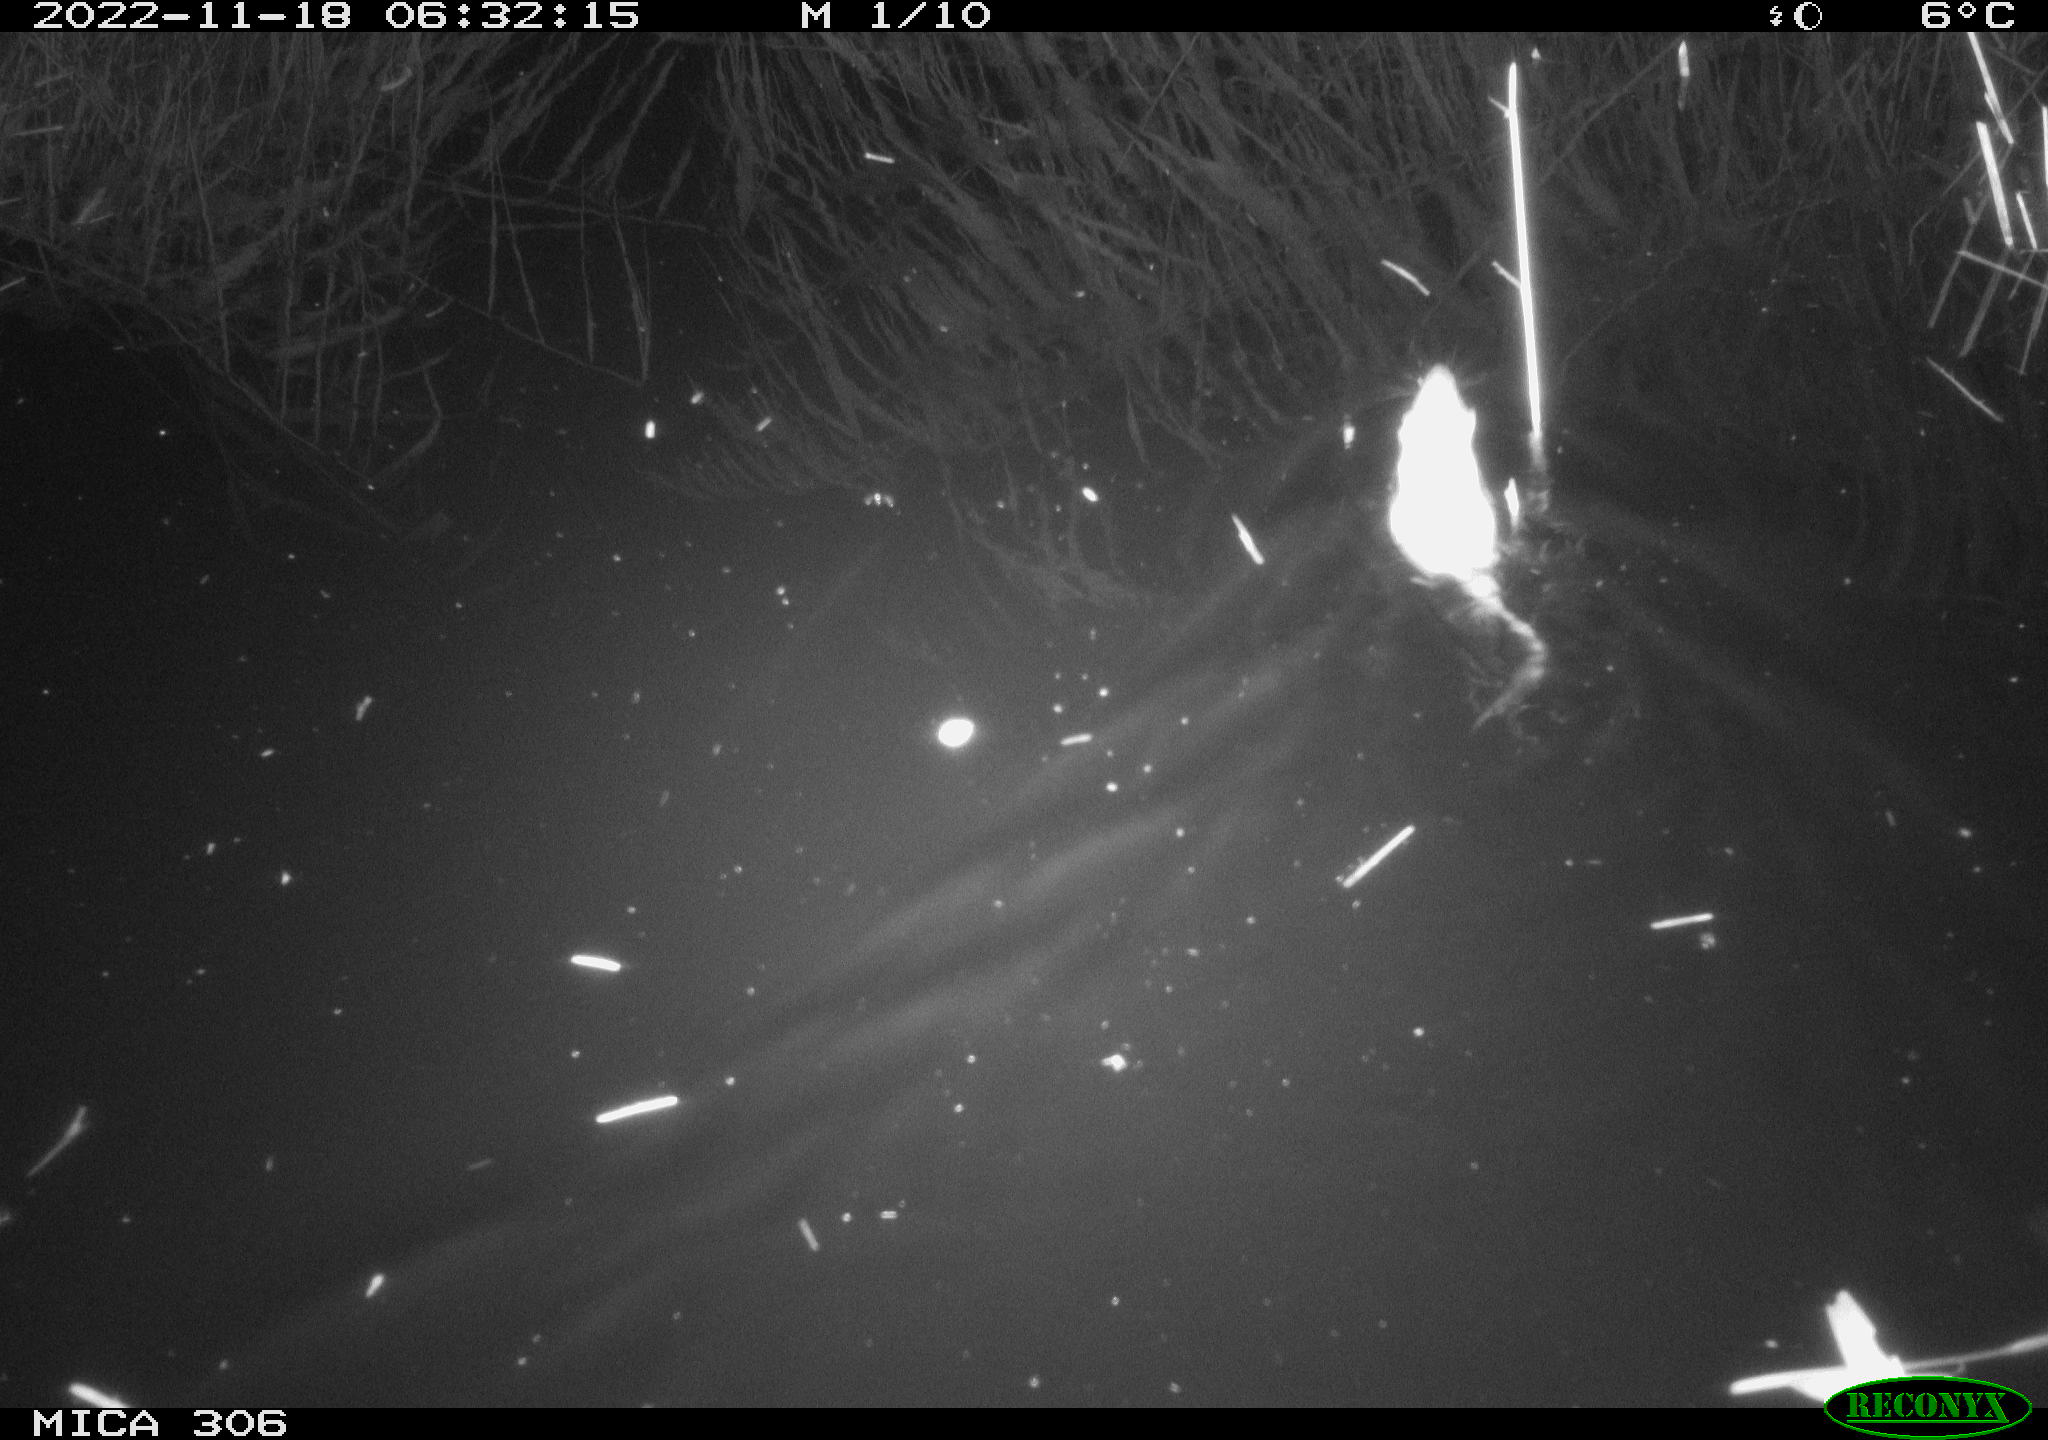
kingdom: Animalia
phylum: Chordata
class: Mammalia
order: Rodentia
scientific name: Rodentia
